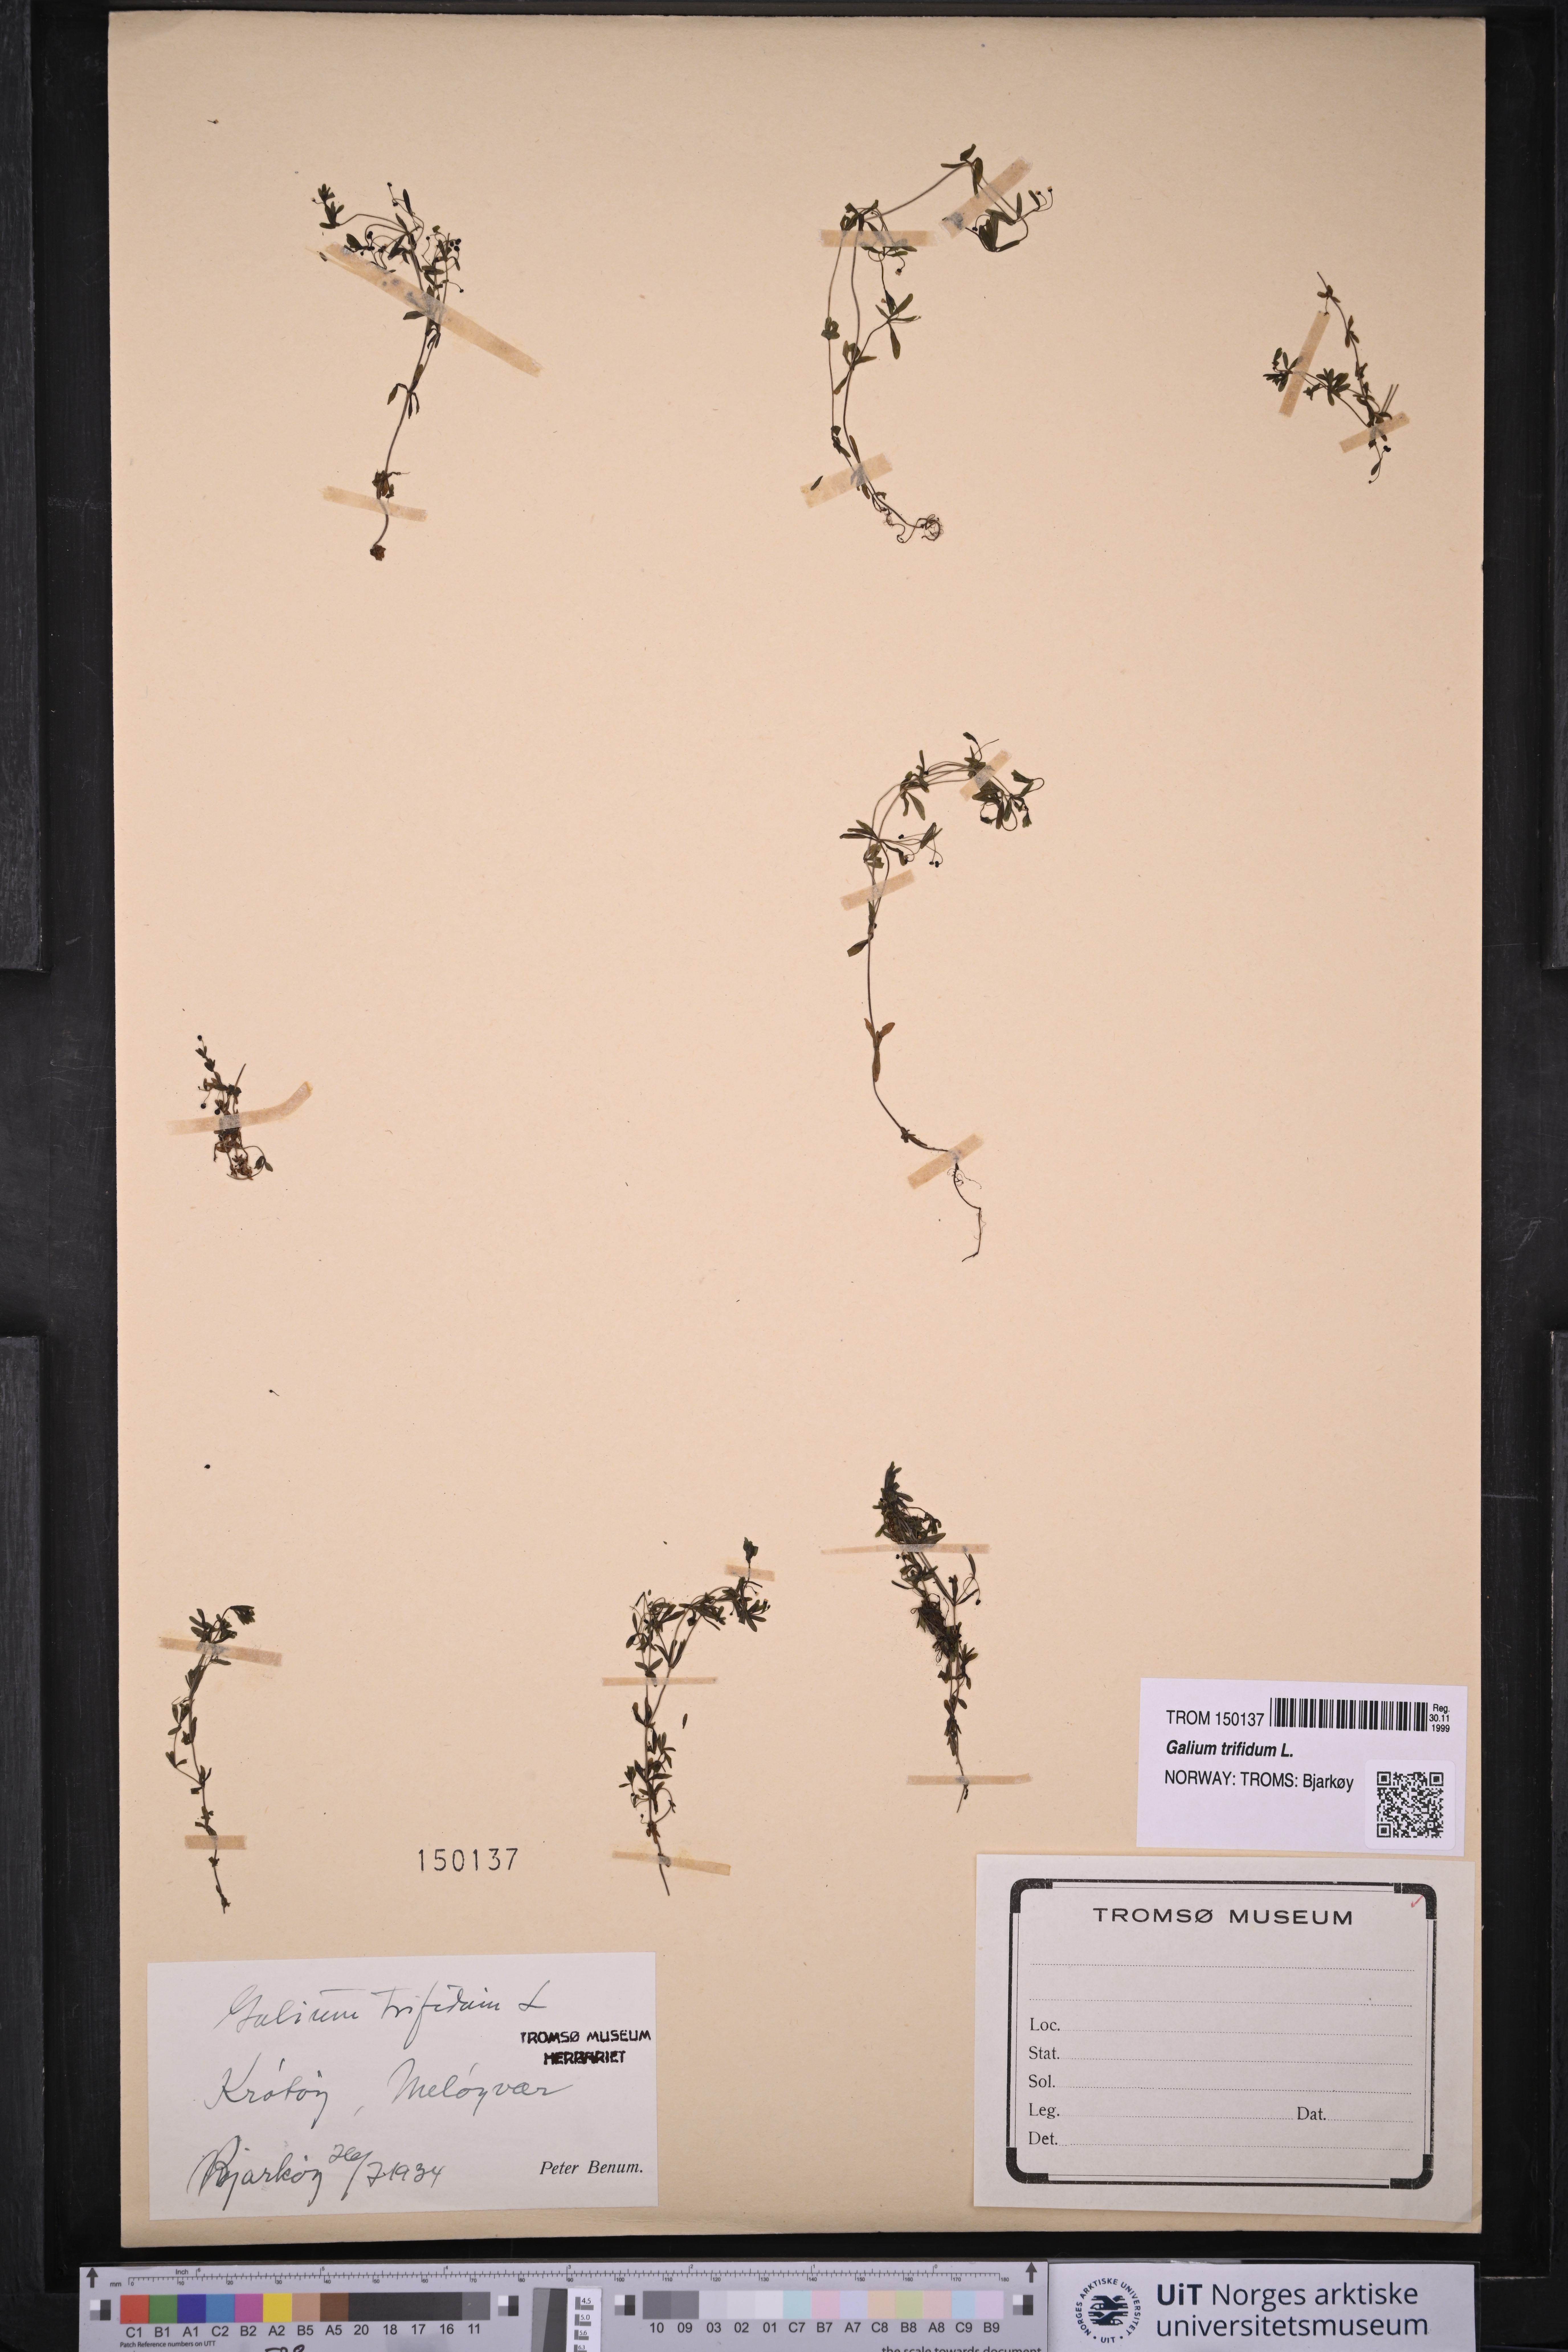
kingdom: Plantae
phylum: Tracheophyta
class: Magnoliopsida
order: Gentianales
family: Rubiaceae
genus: Galium
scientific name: Galium trifidum
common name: Small bedstraw
